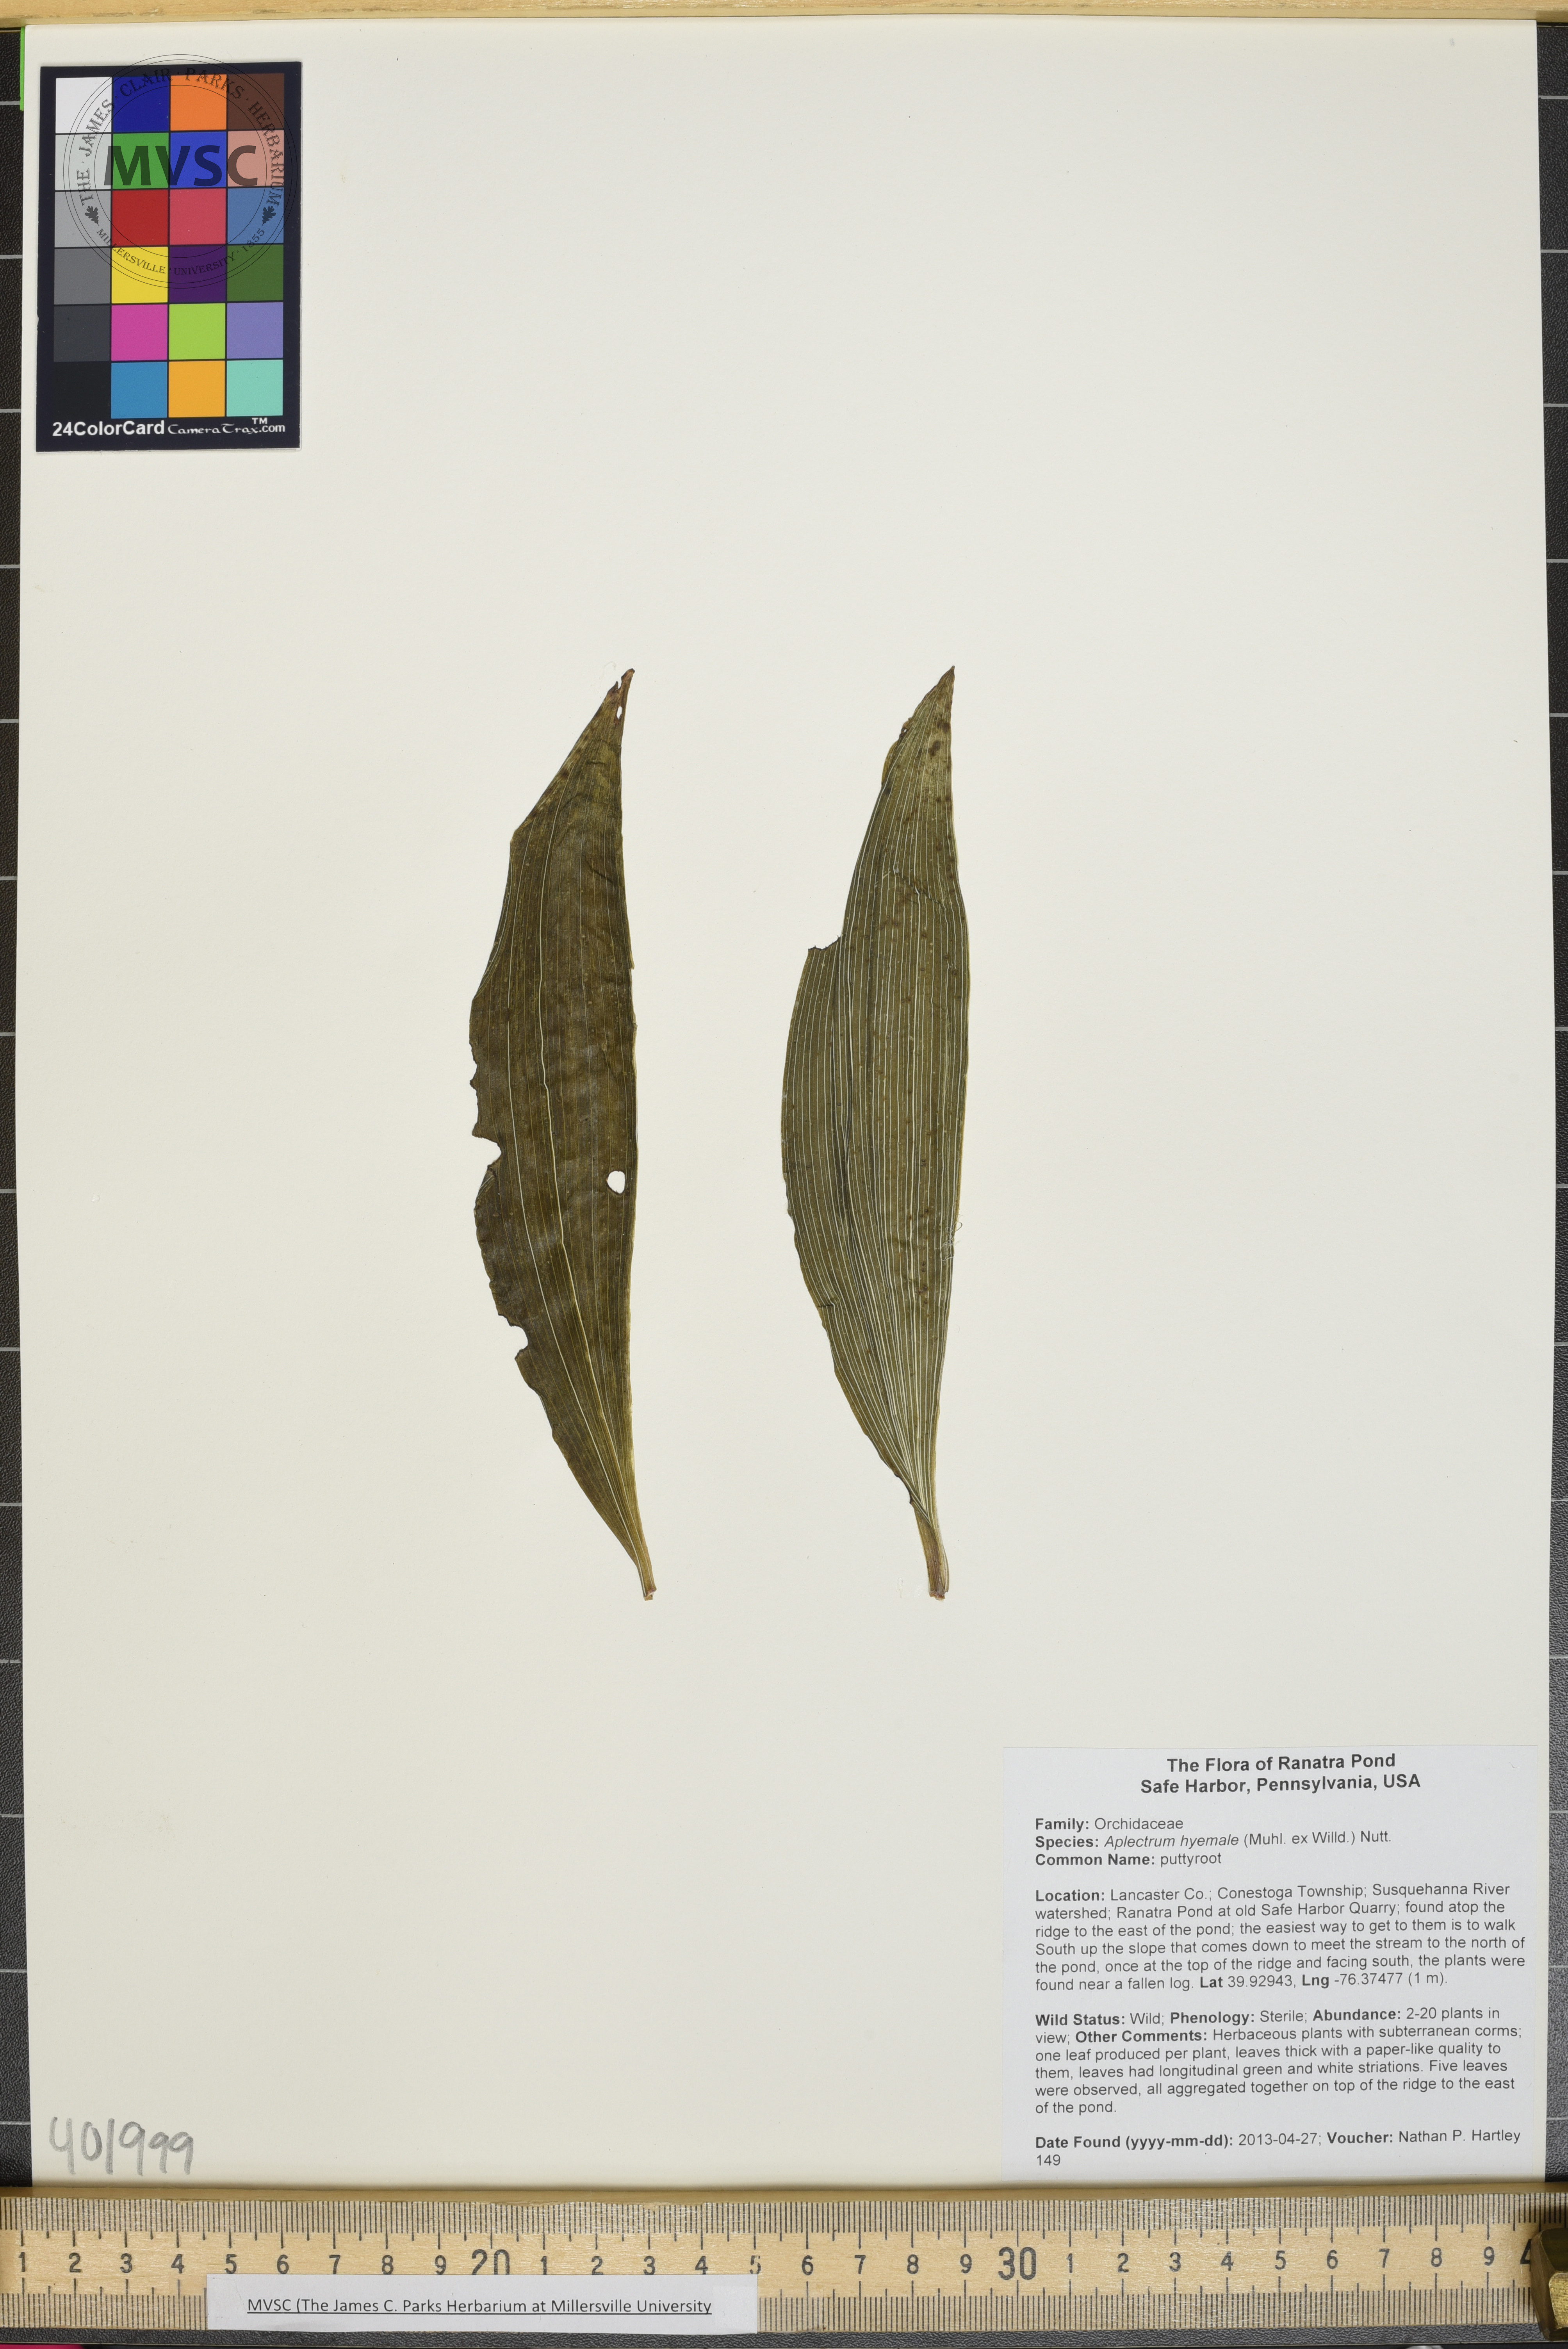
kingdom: Plantae
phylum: Tracheophyta
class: Liliopsida
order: Asparagales
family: Orchidaceae
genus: Aplectrum
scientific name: Aplectrum hyemale
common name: Puttyroot
